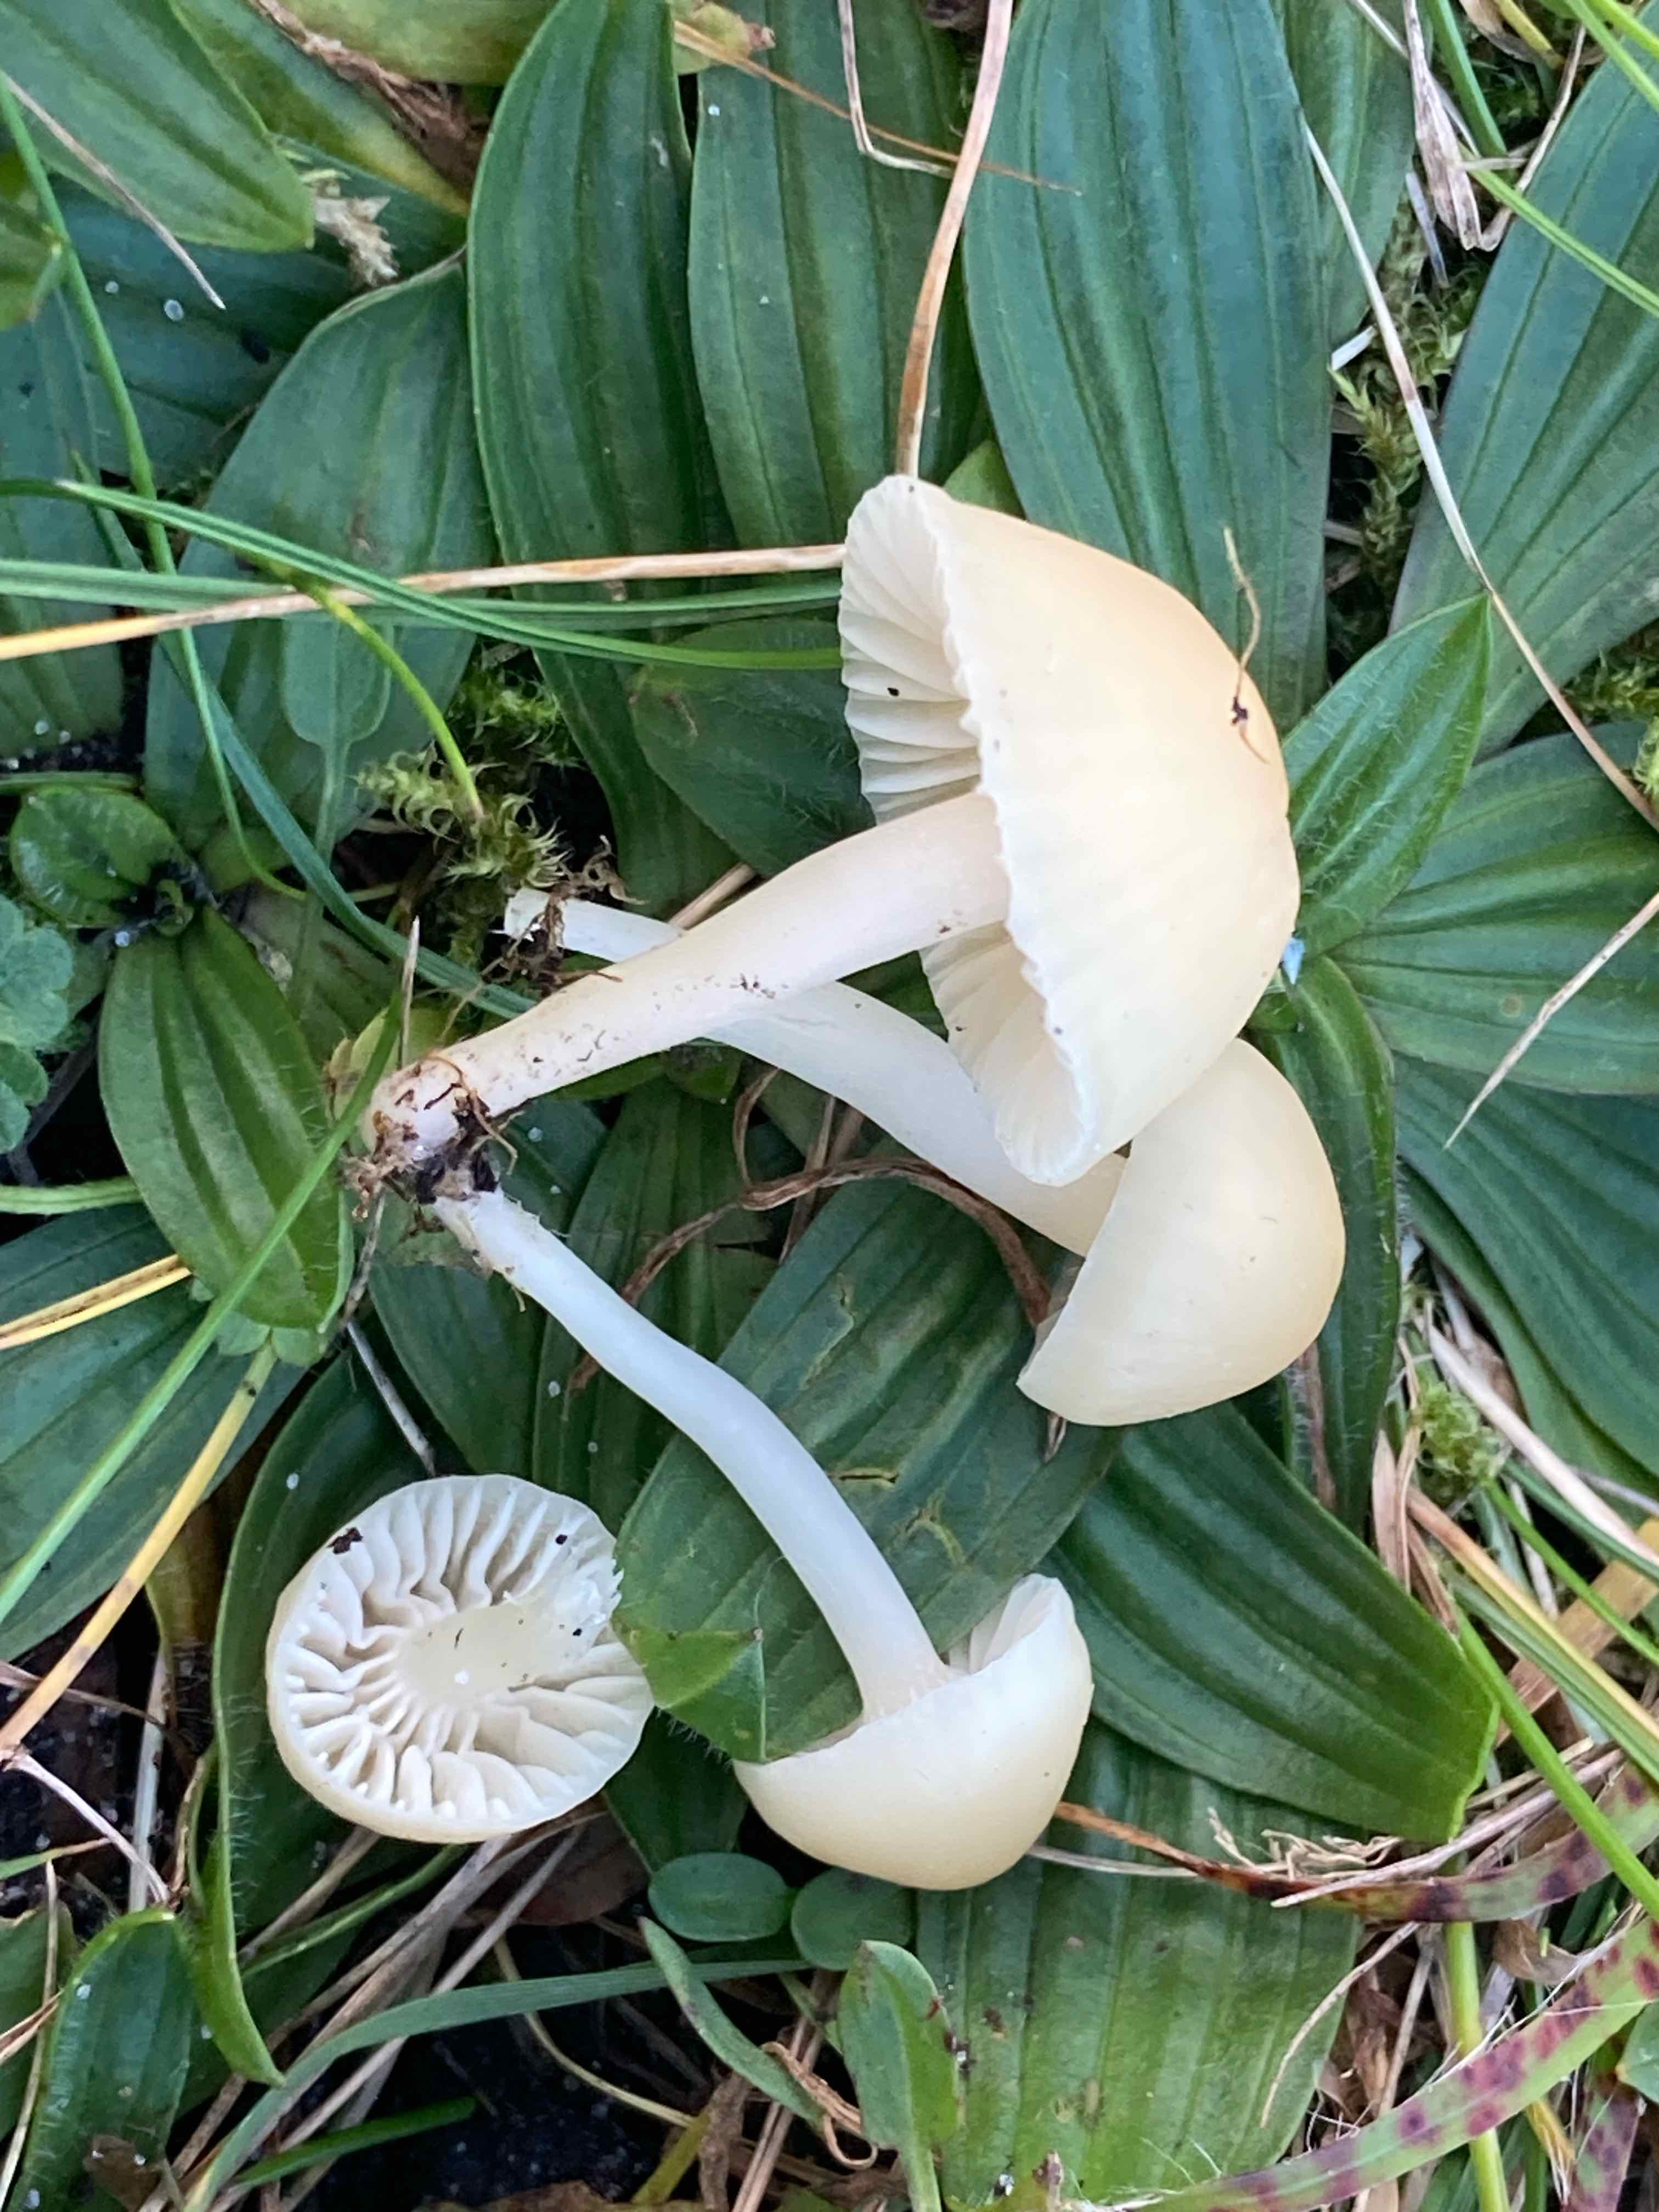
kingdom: Fungi
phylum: Basidiomycota
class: Agaricomycetes
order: Agaricales
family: Hygrophoraceae
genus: Cuphophyllus
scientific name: Cuphophyllus russocoriaceus
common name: ruslæder-vokshat
